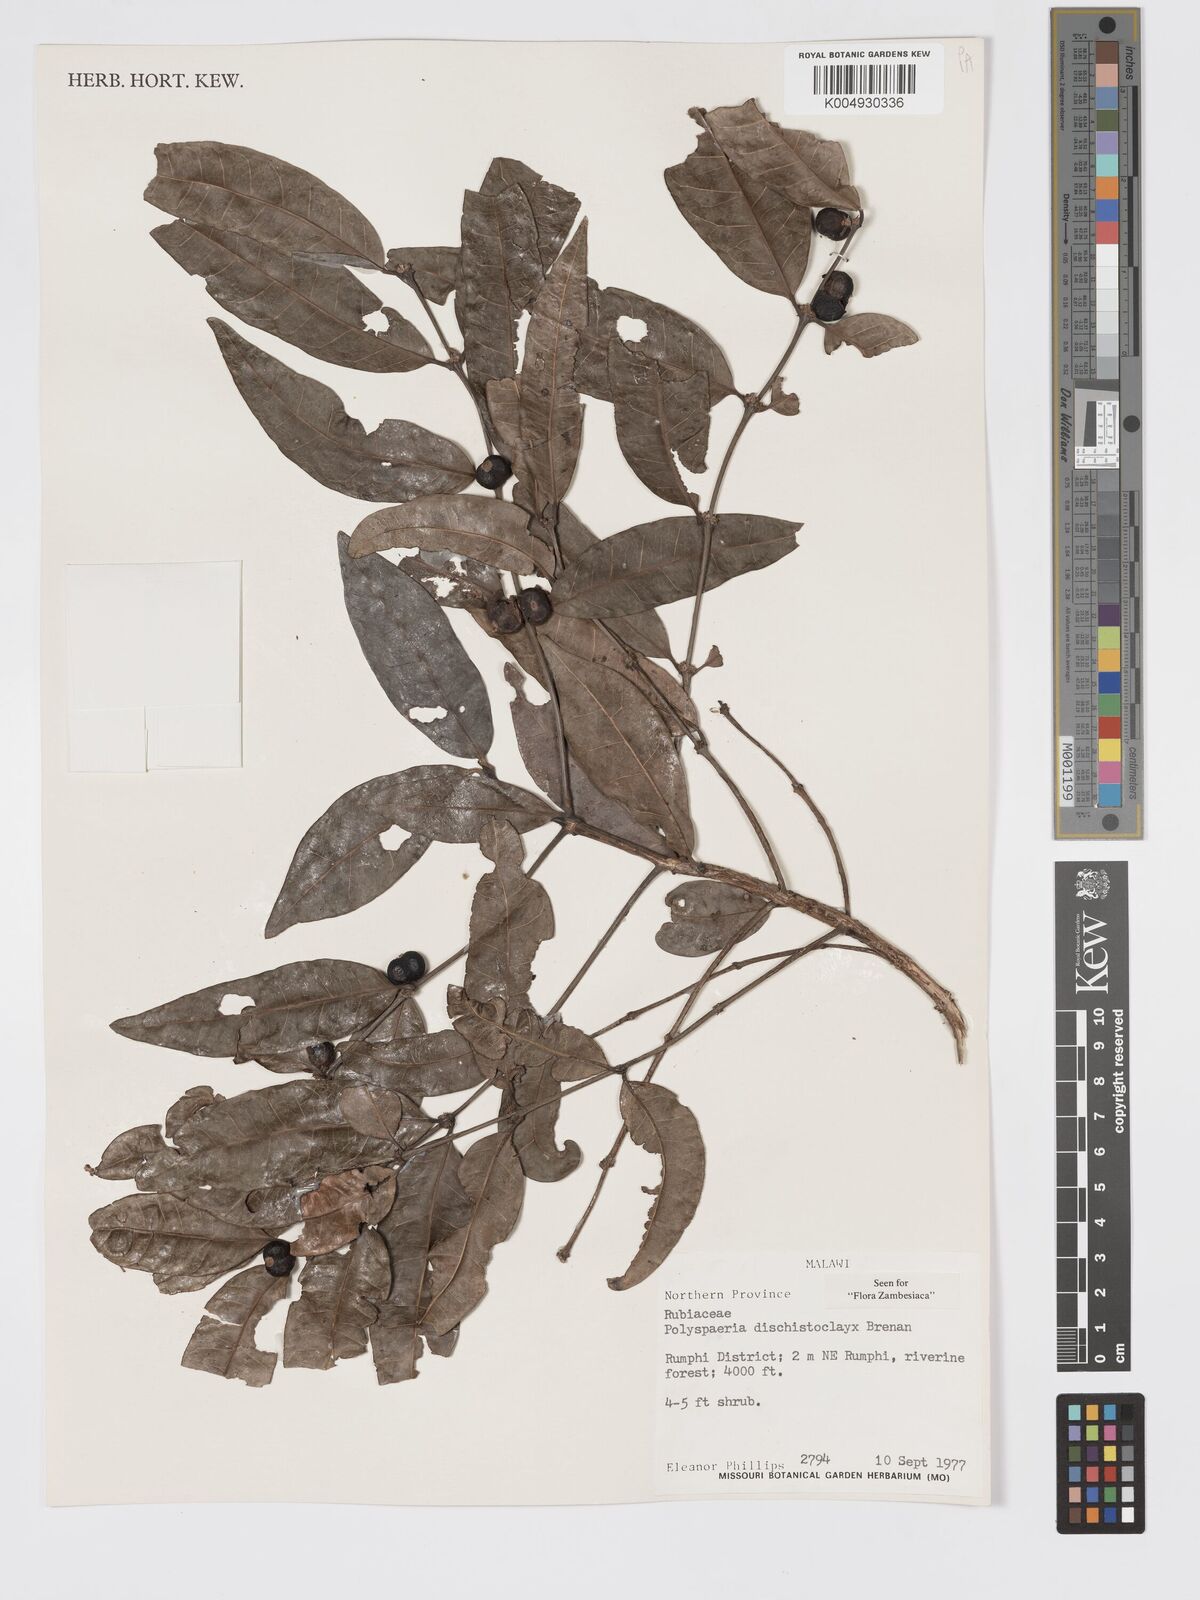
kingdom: Plantae
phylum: Tracheophyta
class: Magnoliopsida
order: Gentianales
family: Rubiaceae
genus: Polysphaeria
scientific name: Polysphaeria dischistocalyx
